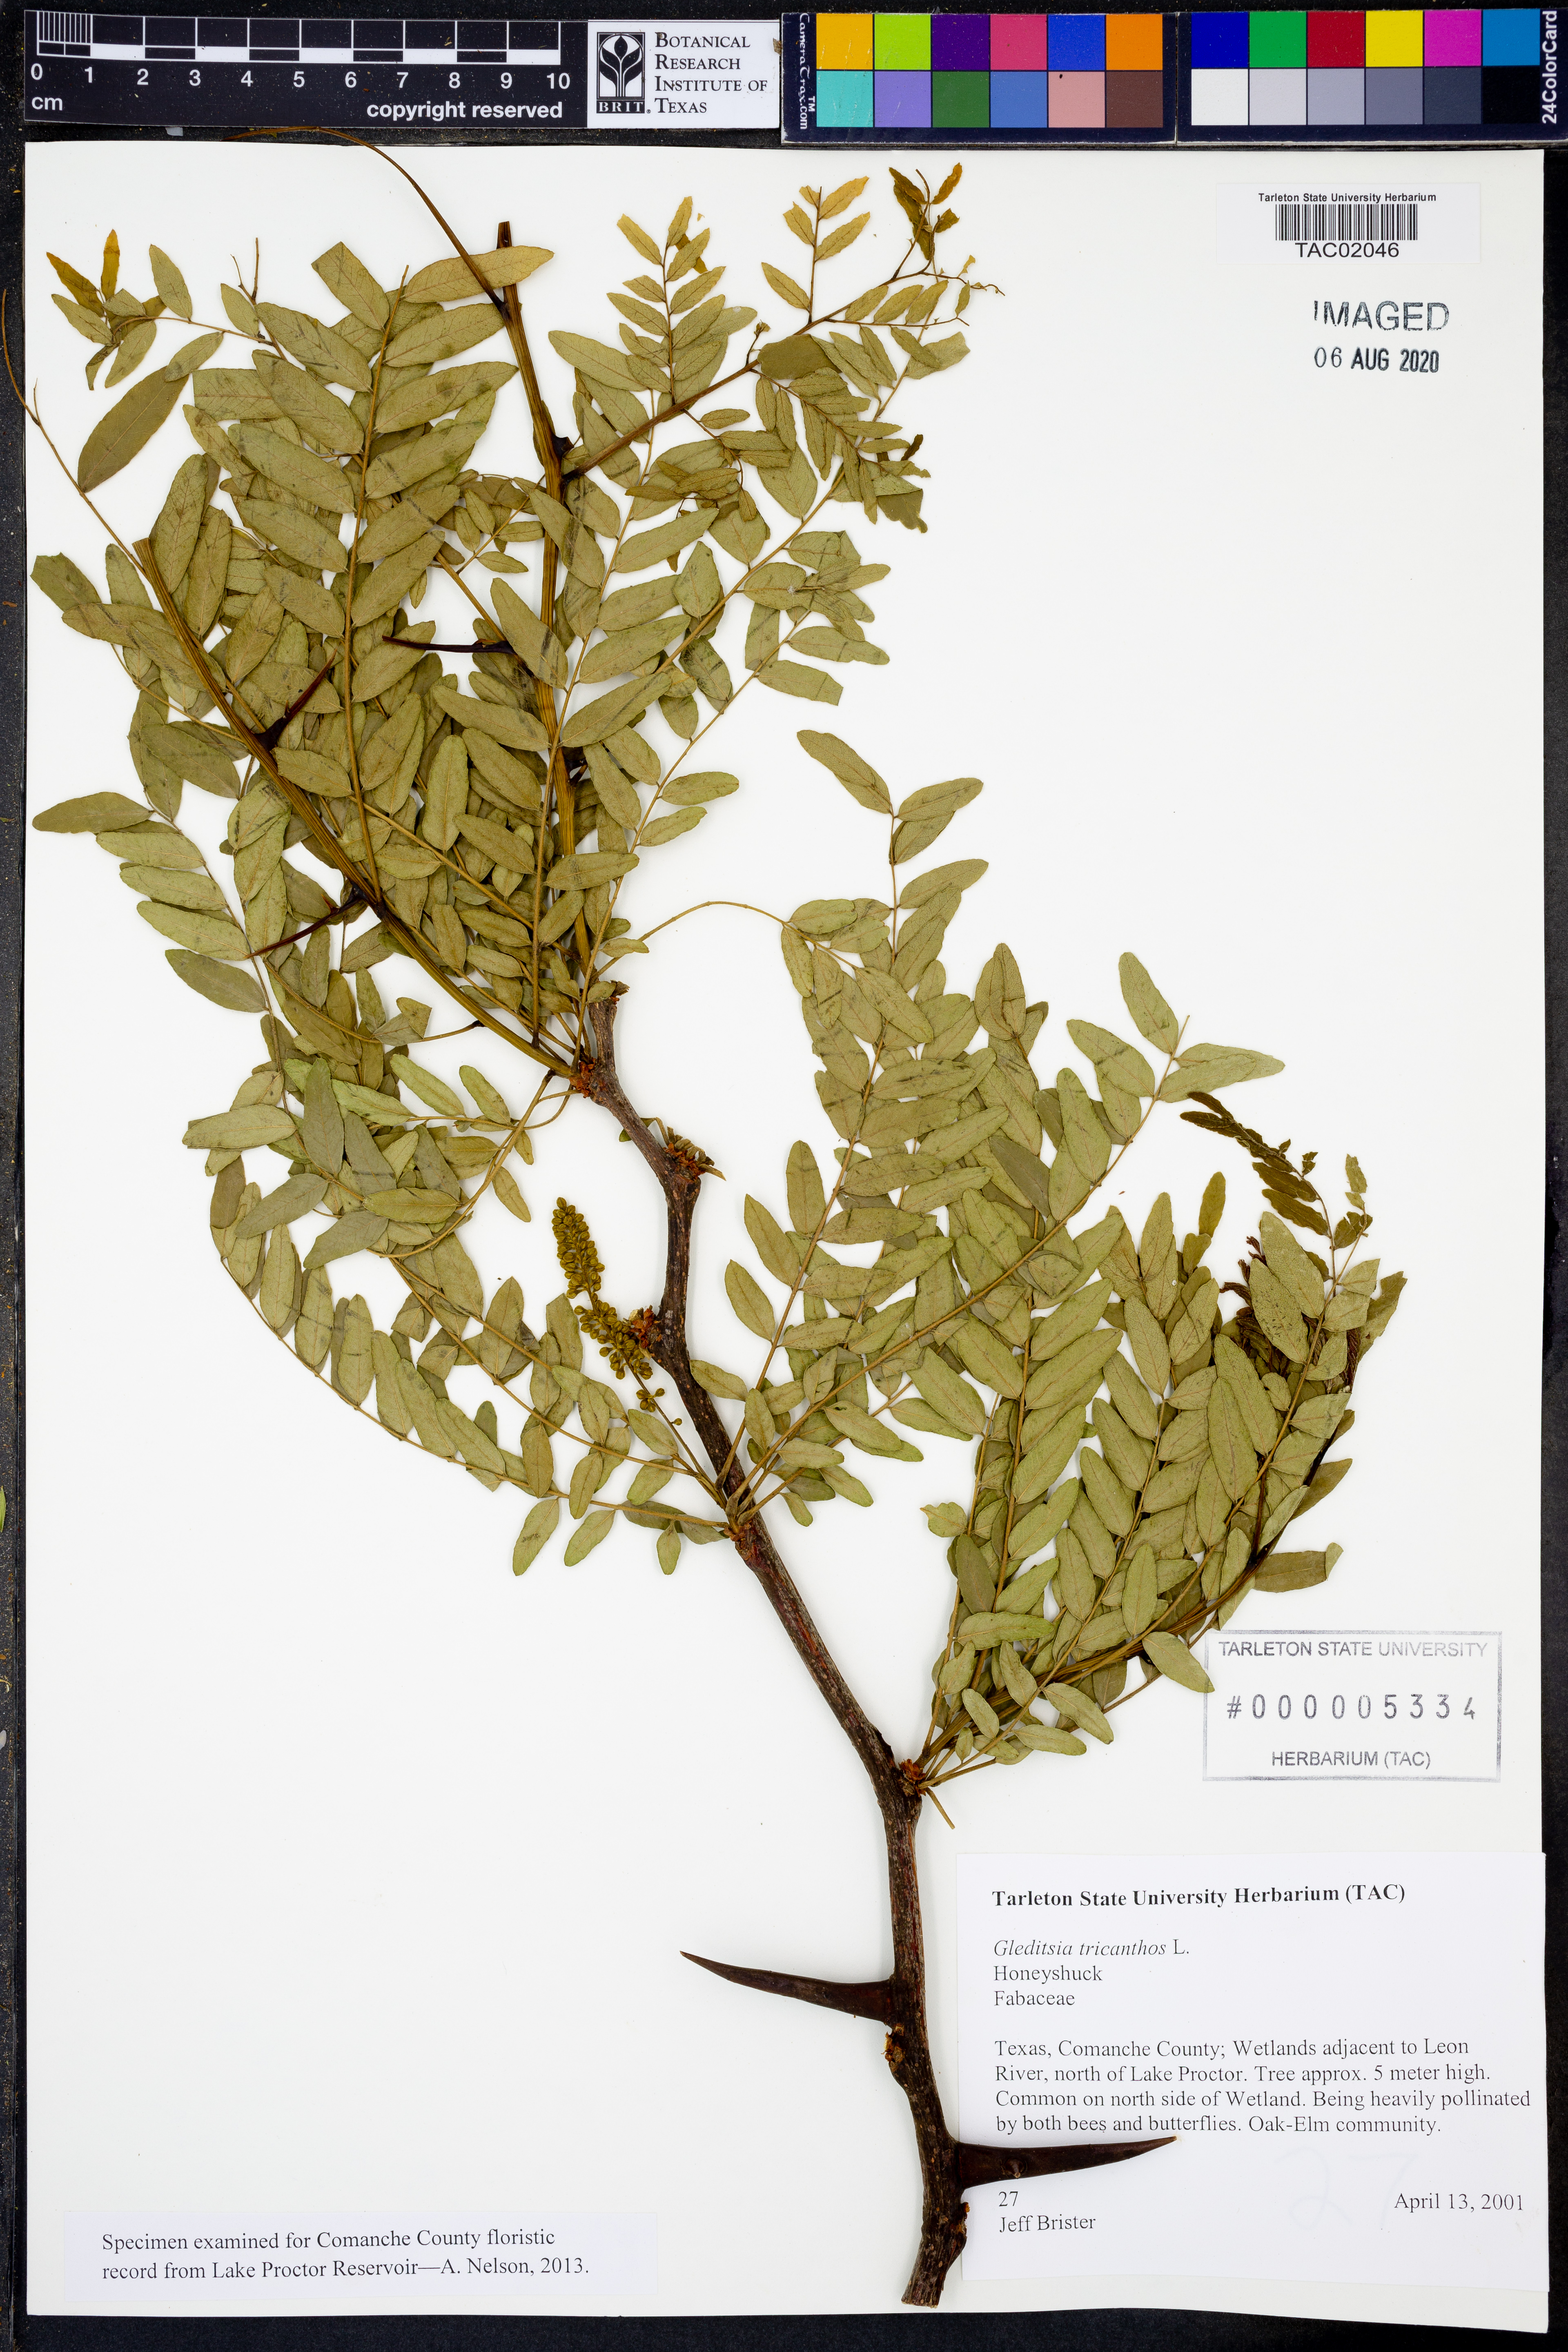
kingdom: Plantae
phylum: Tracheophyta
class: Magnoliopsida
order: Fabales
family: Fabaceae
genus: Gleditsia
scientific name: Gleditsia triacanthos
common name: Common honeylocust
